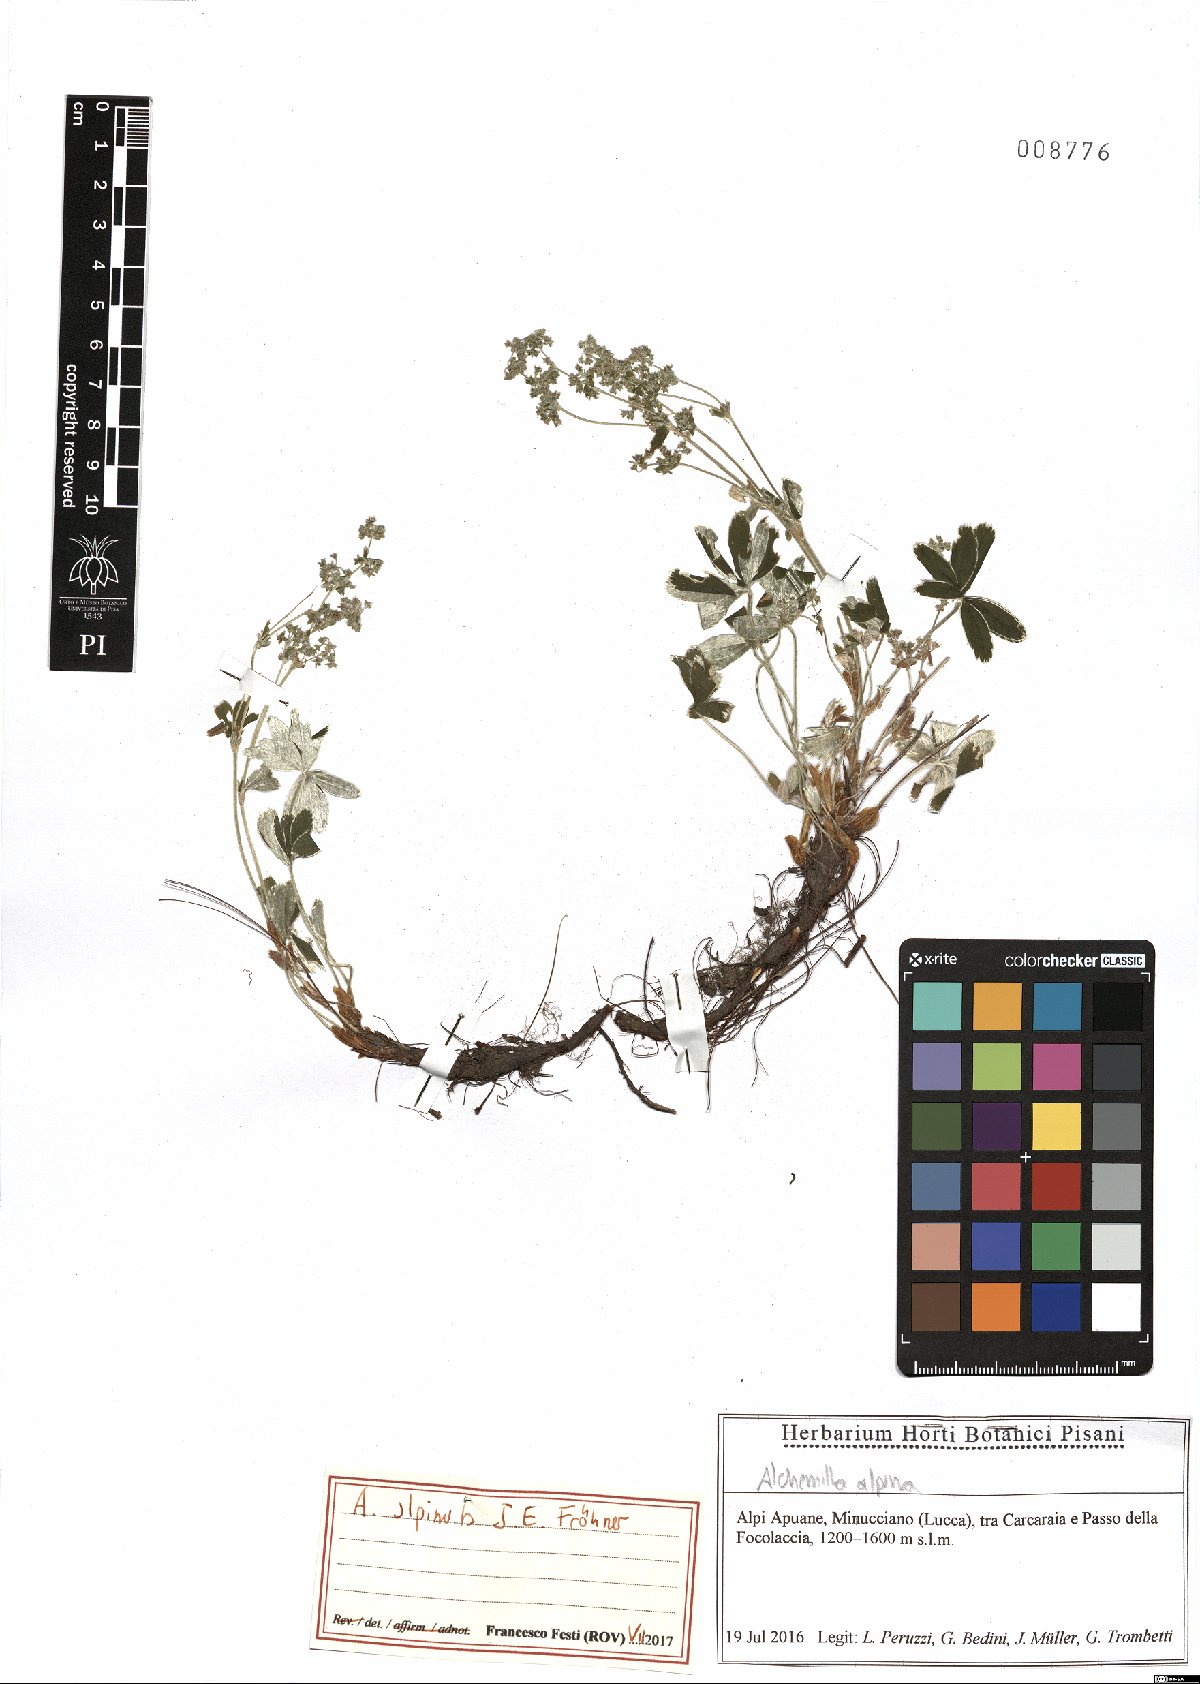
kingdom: Plantae
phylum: Tracheophyta
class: Magnoliopsida
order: Rosales
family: Rosaceae
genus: Alchemilla
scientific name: Alchemilla alpinula
